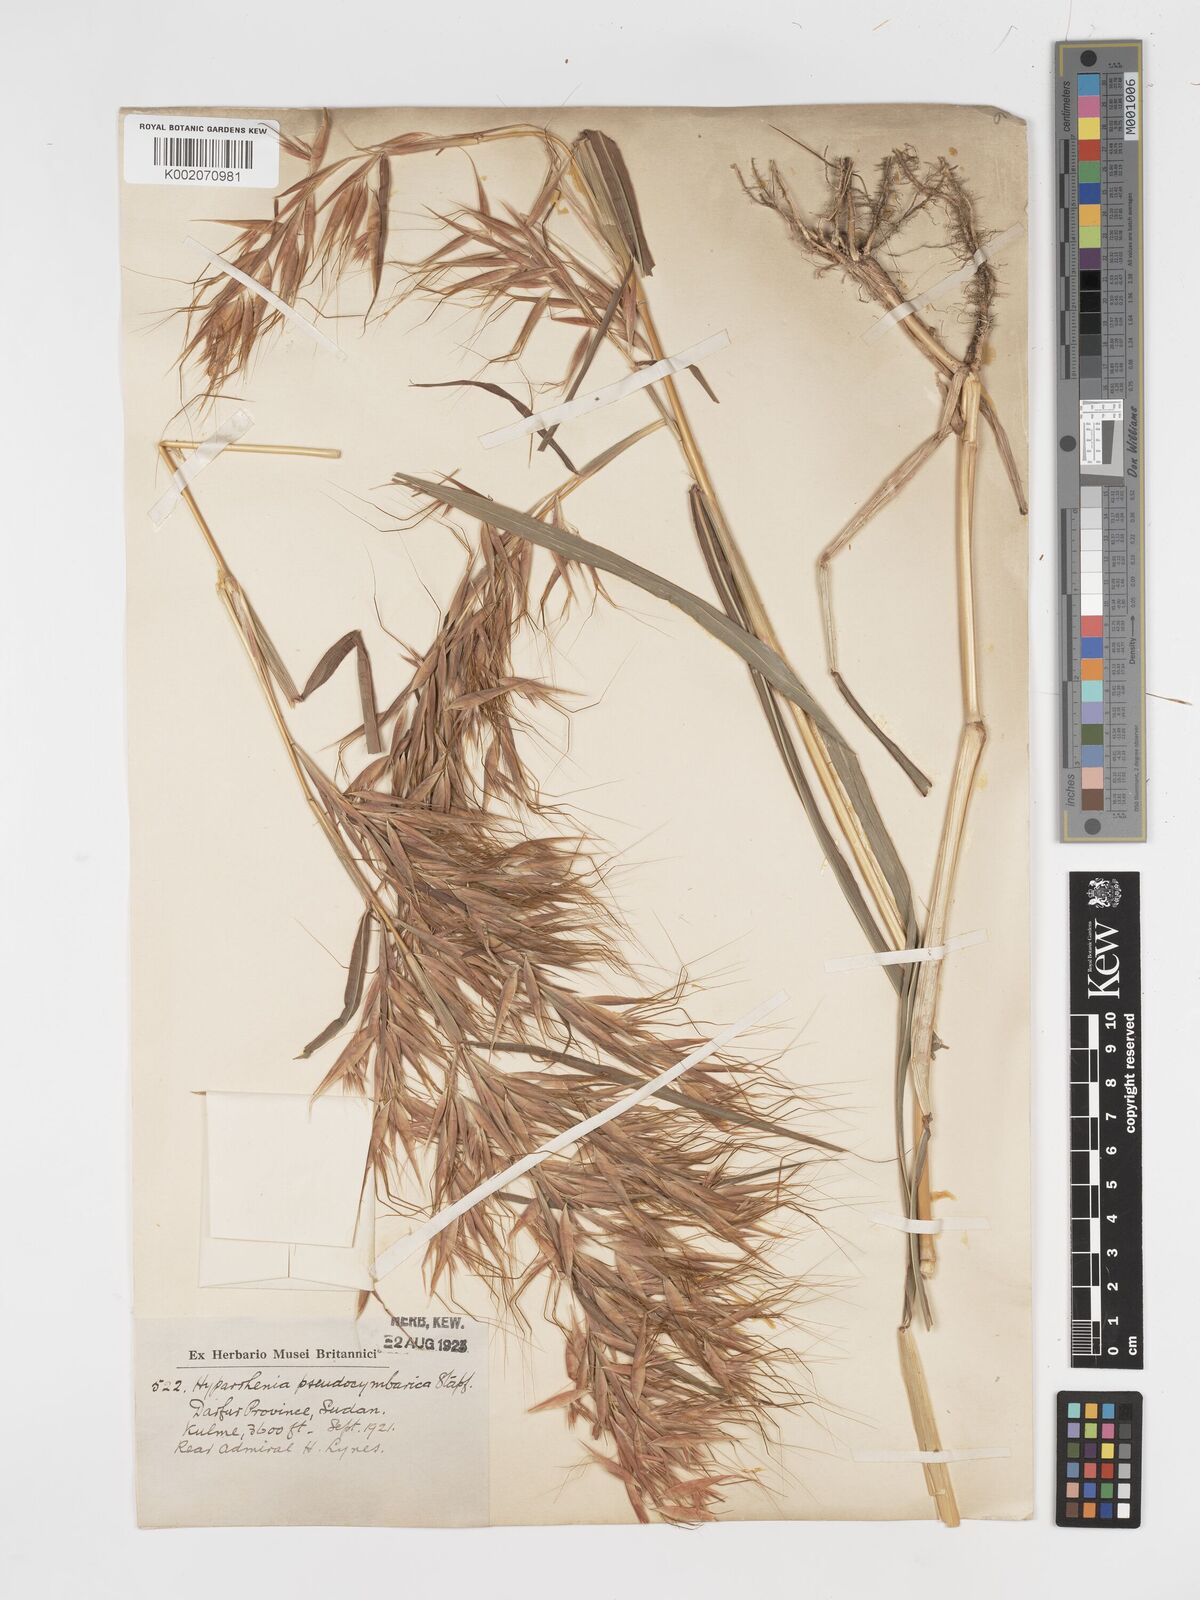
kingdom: Plantae
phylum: Tracheophyta
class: Liliopsida
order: Poales
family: Poaceae
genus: Hyparrhenia
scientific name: Hyparrhenia anthistirioides
